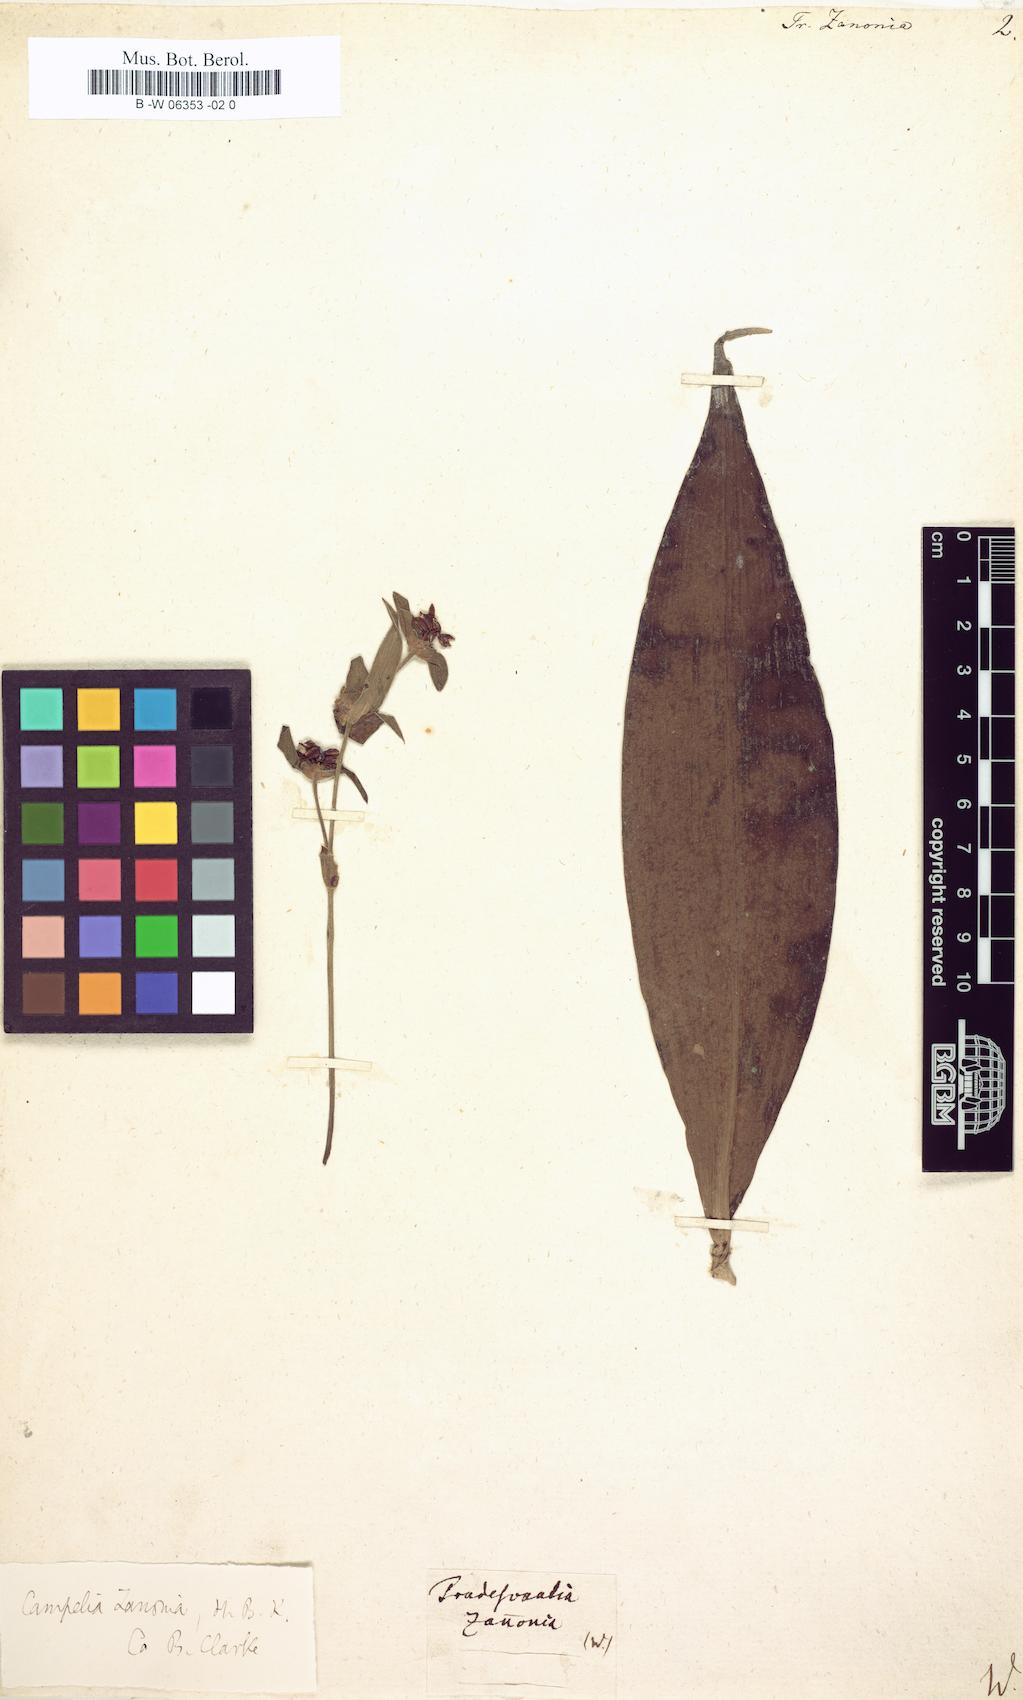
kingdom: Plantae
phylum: Tracheophyta
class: Liliopsida
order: Commelinales
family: Commelinaceae
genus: Tradescantia
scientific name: Tradescantia zanonia
